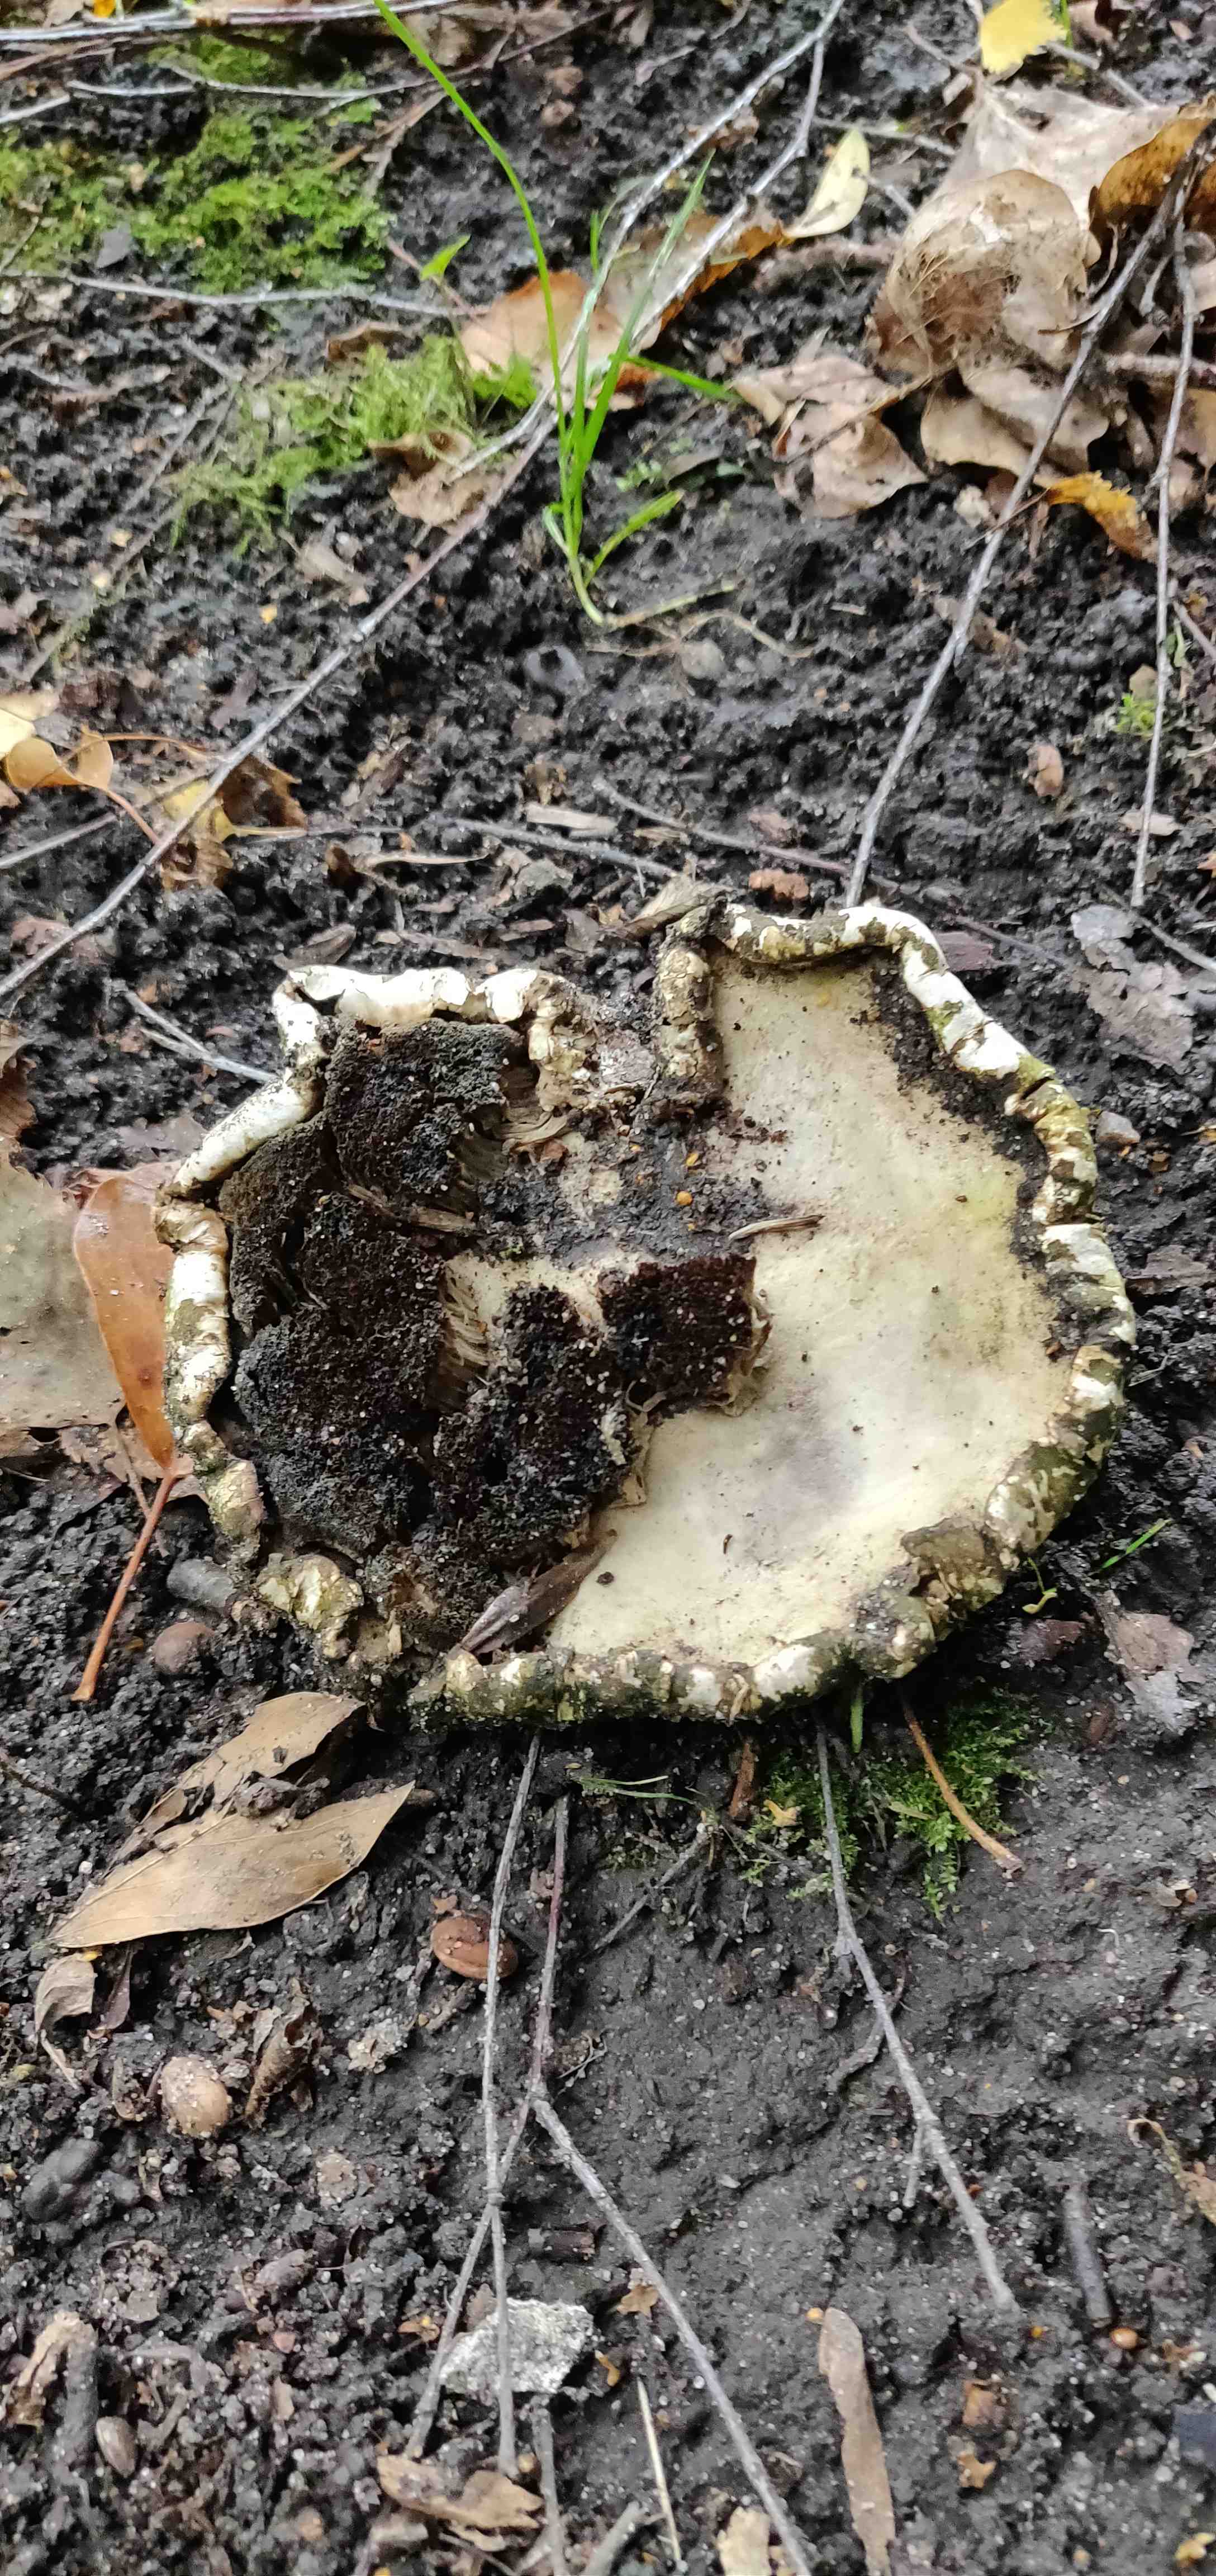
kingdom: Fungi
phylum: Basidiomycota
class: Agaricomycetes
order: Polyporales
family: Fomitopsidaceae
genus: Fomitopsis
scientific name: Fomitopsis betulina
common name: birkeporesvamp
